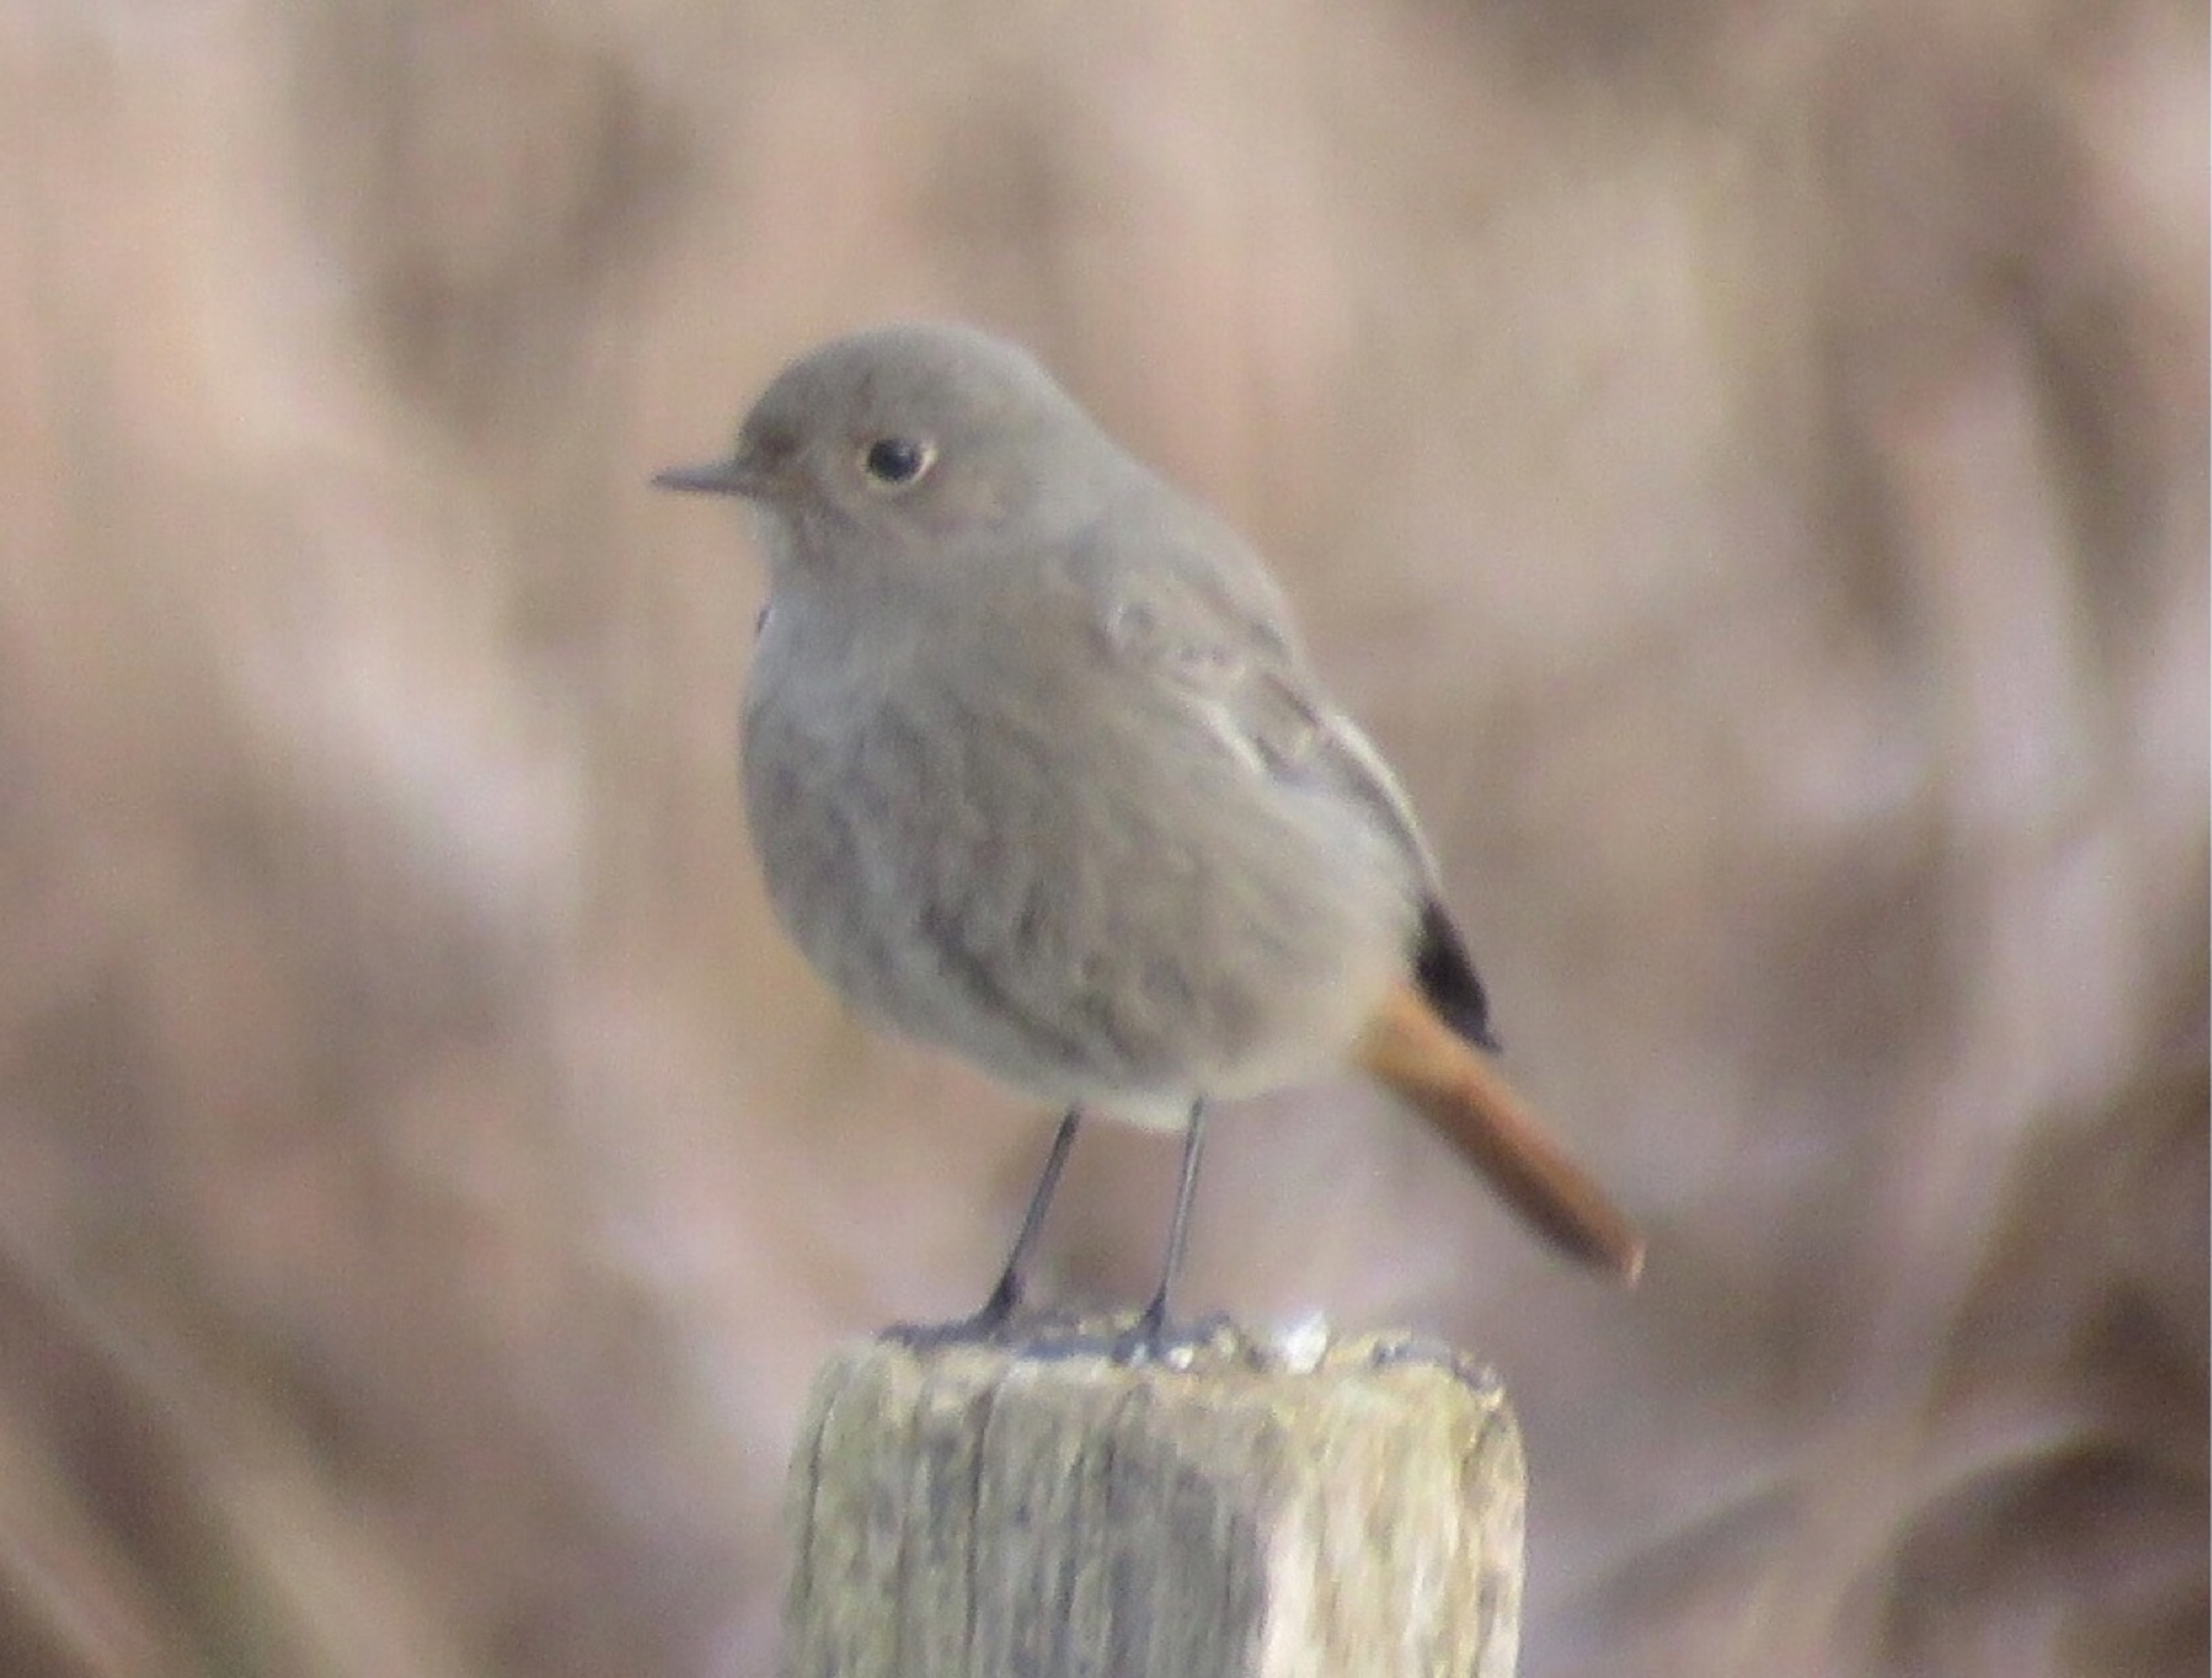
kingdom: Animalia
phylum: Chordata
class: Aves
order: Passeriformes
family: Muscicapidae
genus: Phoenicurus
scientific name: Phoenicurus ochruros
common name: Husrødstjert
